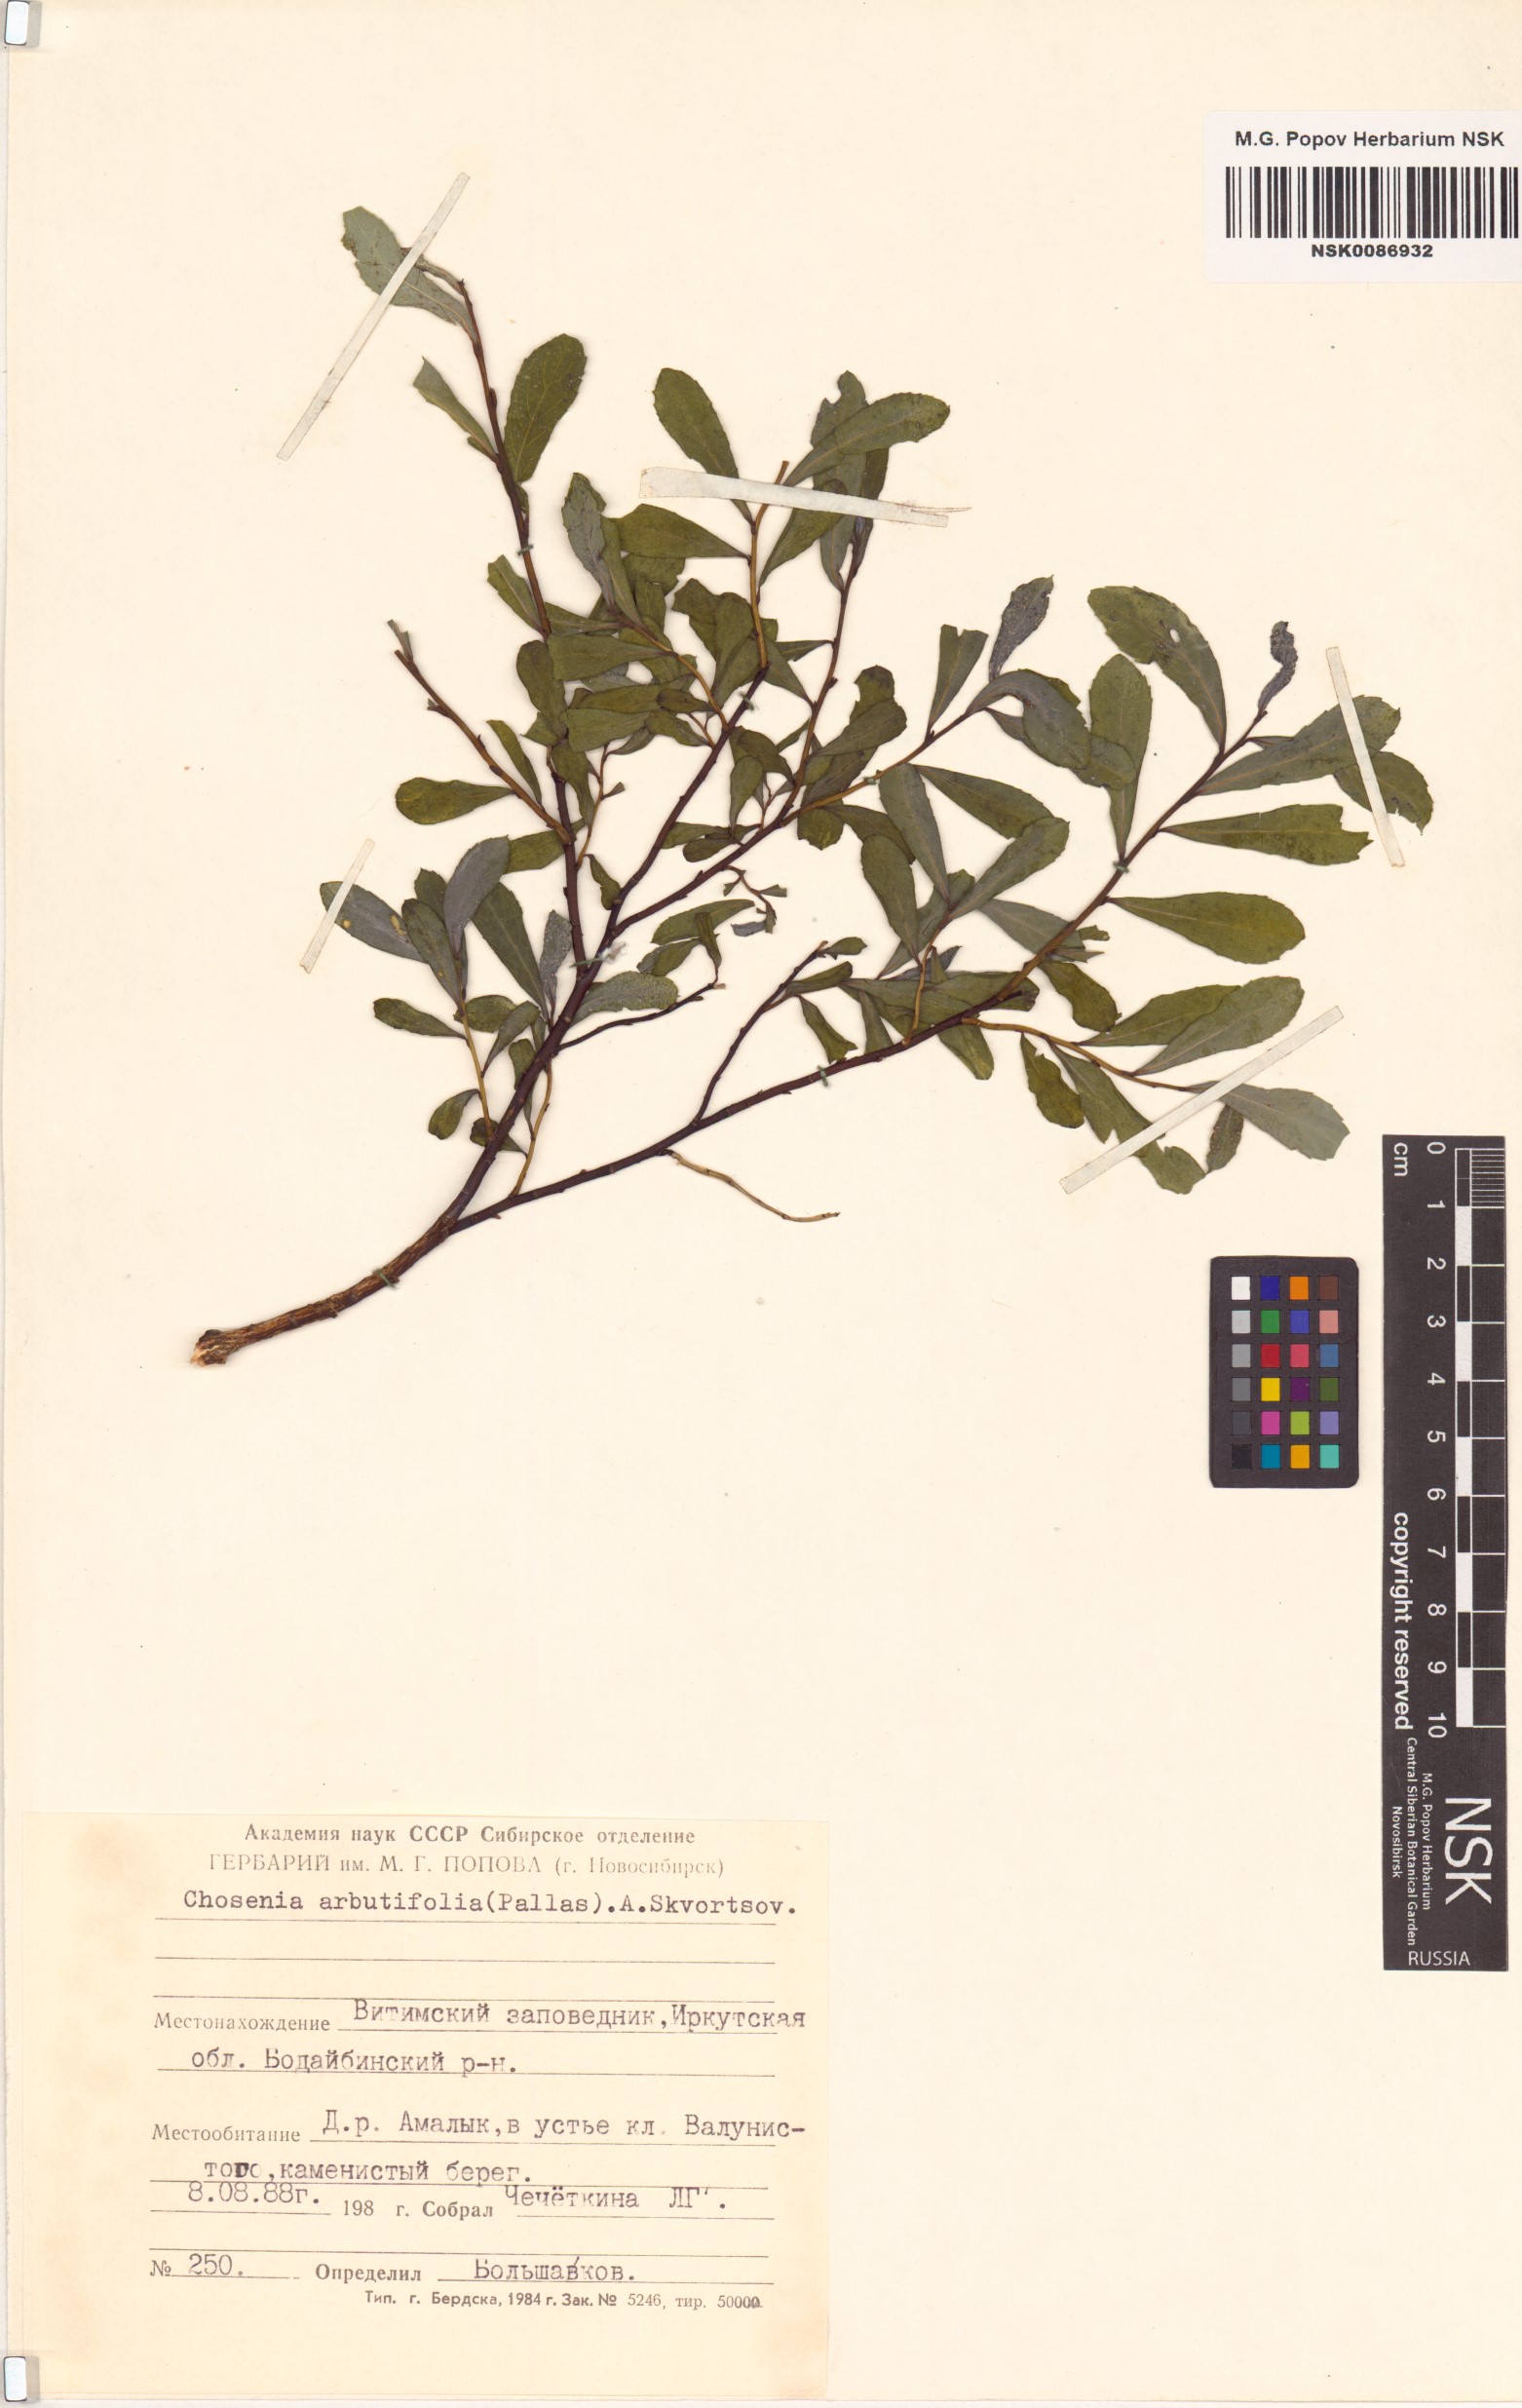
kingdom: Plantae
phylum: Tracheophyta
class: Magnoliopsida
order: Malpighiales
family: Salicaceae
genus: Chosenia
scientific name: Chosenia arbutifolia
